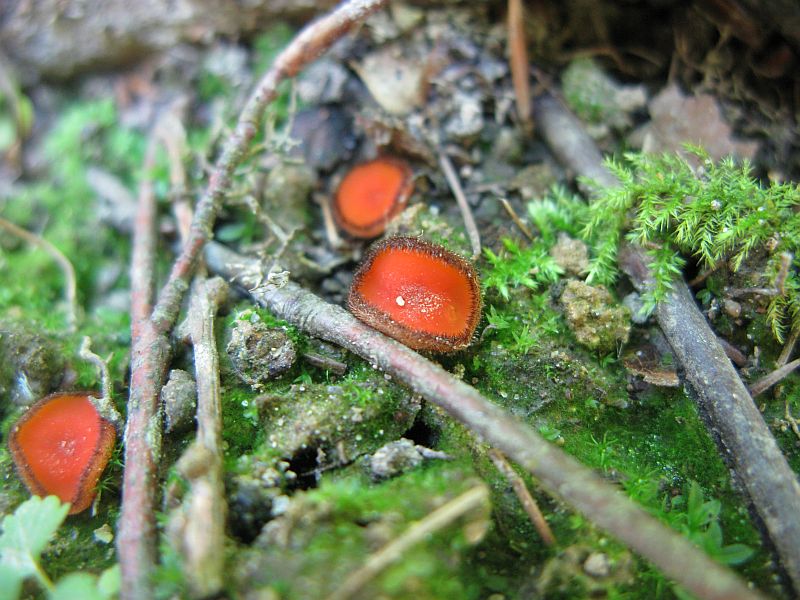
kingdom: Fungi
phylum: Ascomycota
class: Pezizomycetes
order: Pezizales
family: Pyronemataceae
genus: Scutellinia
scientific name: Scutellinia scutellata
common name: frynset skjoldbæger
